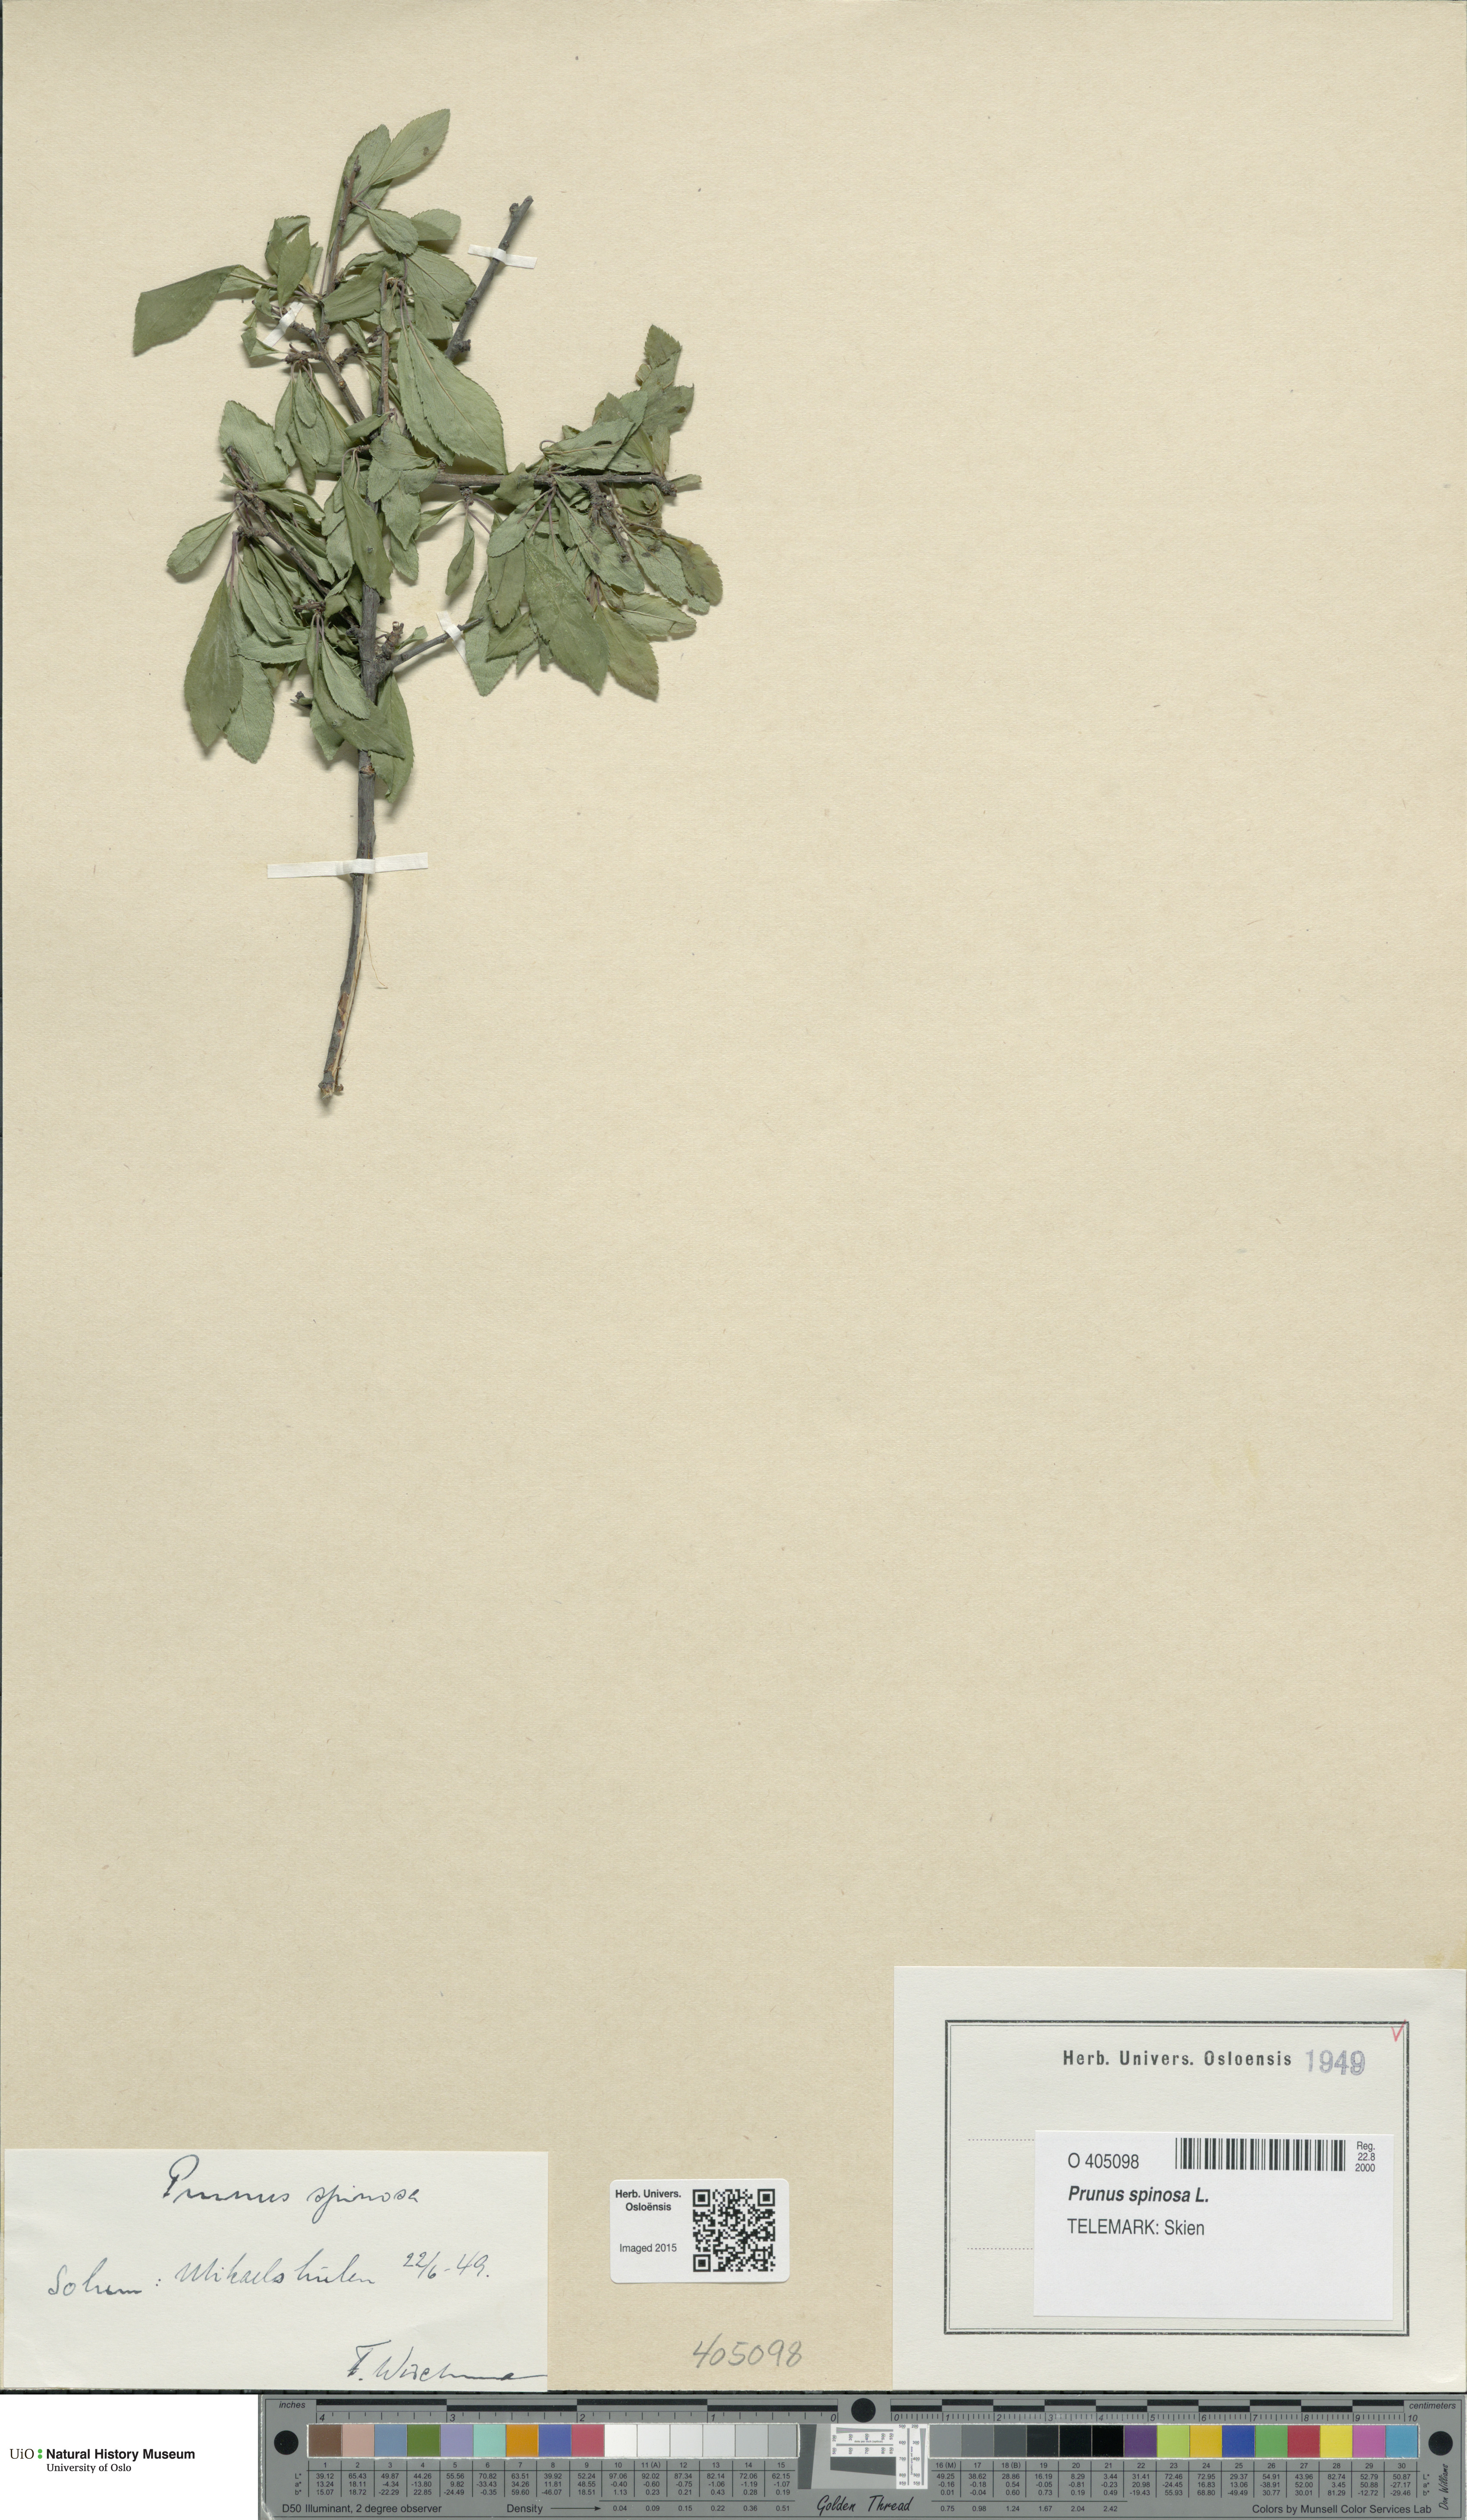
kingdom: Plantae
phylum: Tracheophyta
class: Magnoliopsida
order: Rosales
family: Rosaceae
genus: Prunus
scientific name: Prunus spinosa
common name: Blackthorn
